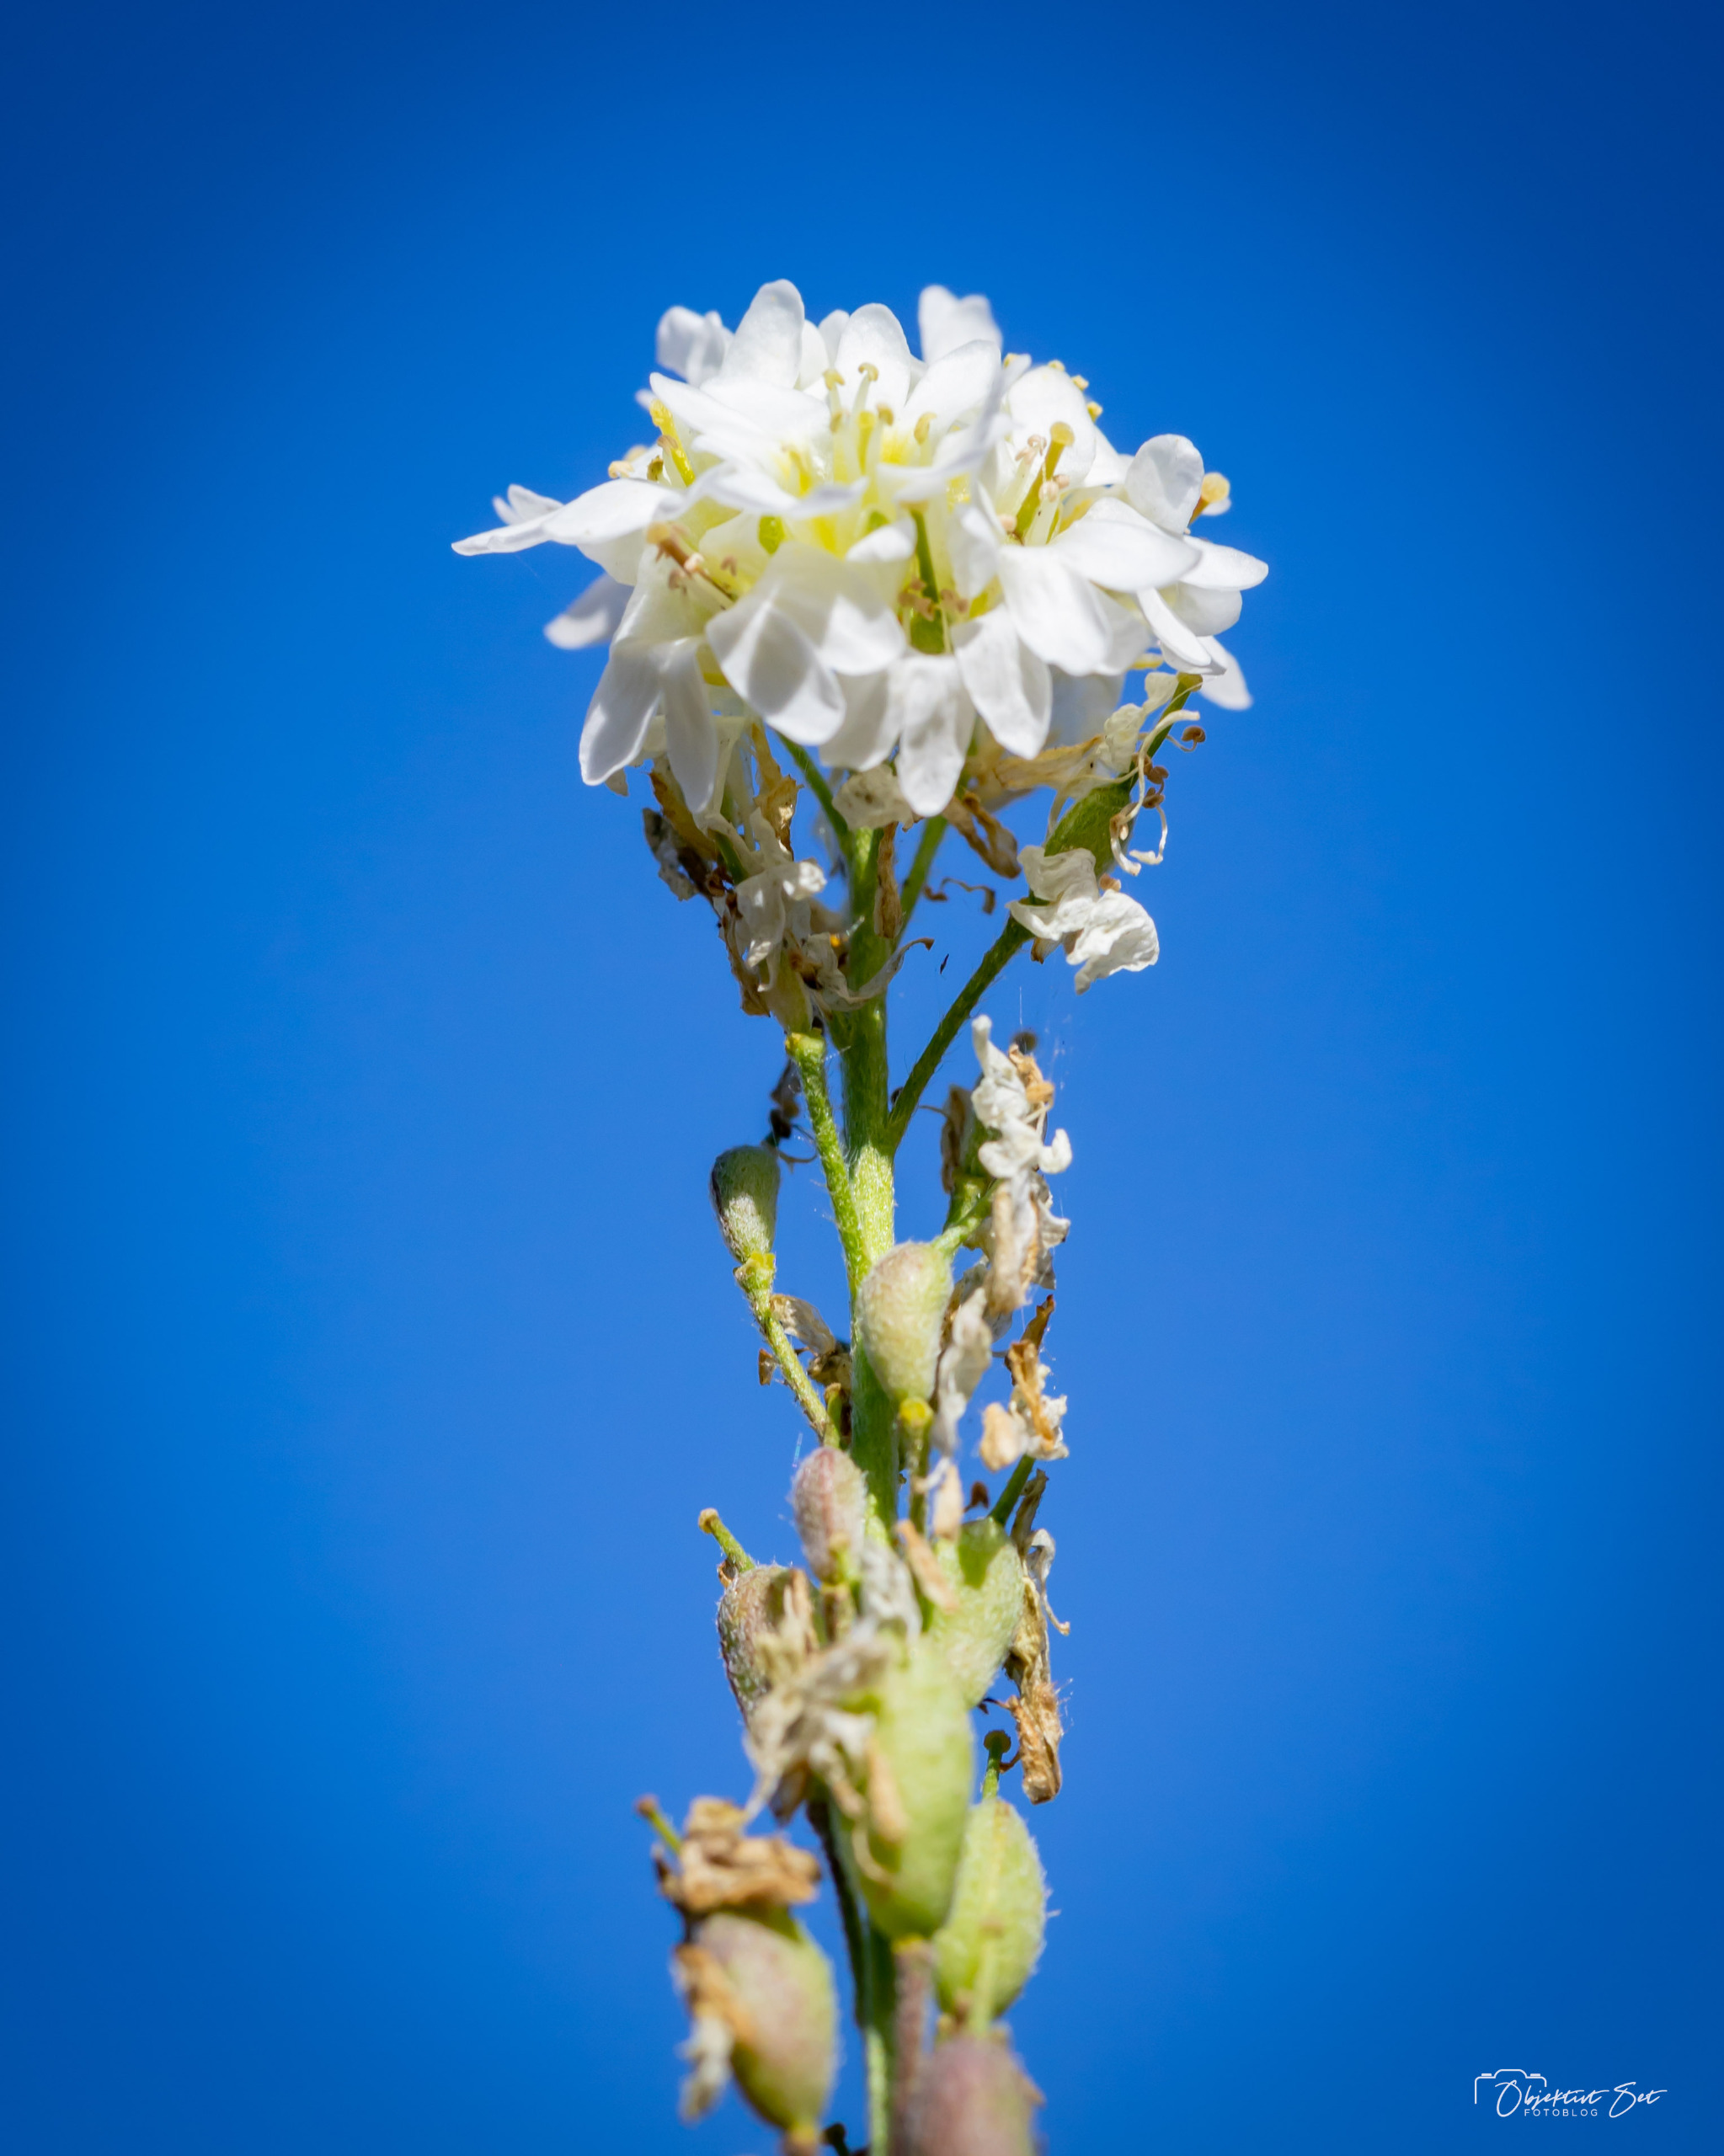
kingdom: Plantae
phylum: Tracheophyta
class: Magnoliopsida
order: Brassicales
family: Brassicaceae
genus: Berteroa
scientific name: Berteroa incana
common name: Kløvplade
